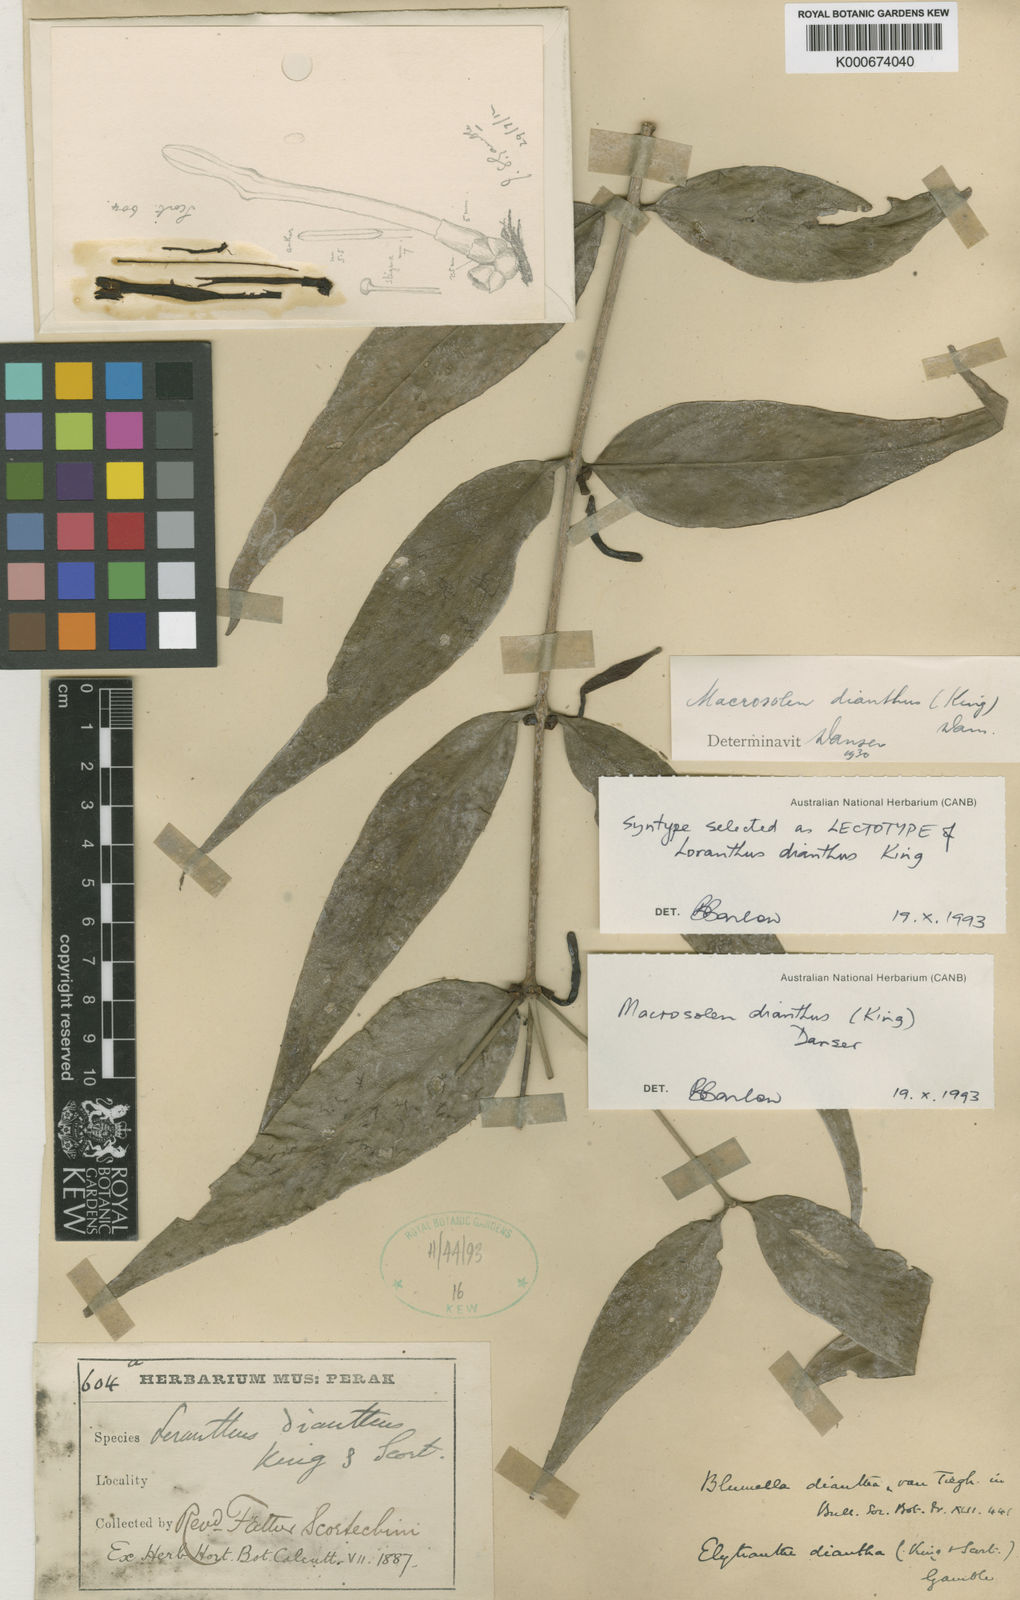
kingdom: Plantae
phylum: Tracheophyta
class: Magnoliopsida
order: Santalales
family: Loranthaceae
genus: Macrosolen
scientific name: Macrosolen dianthus
